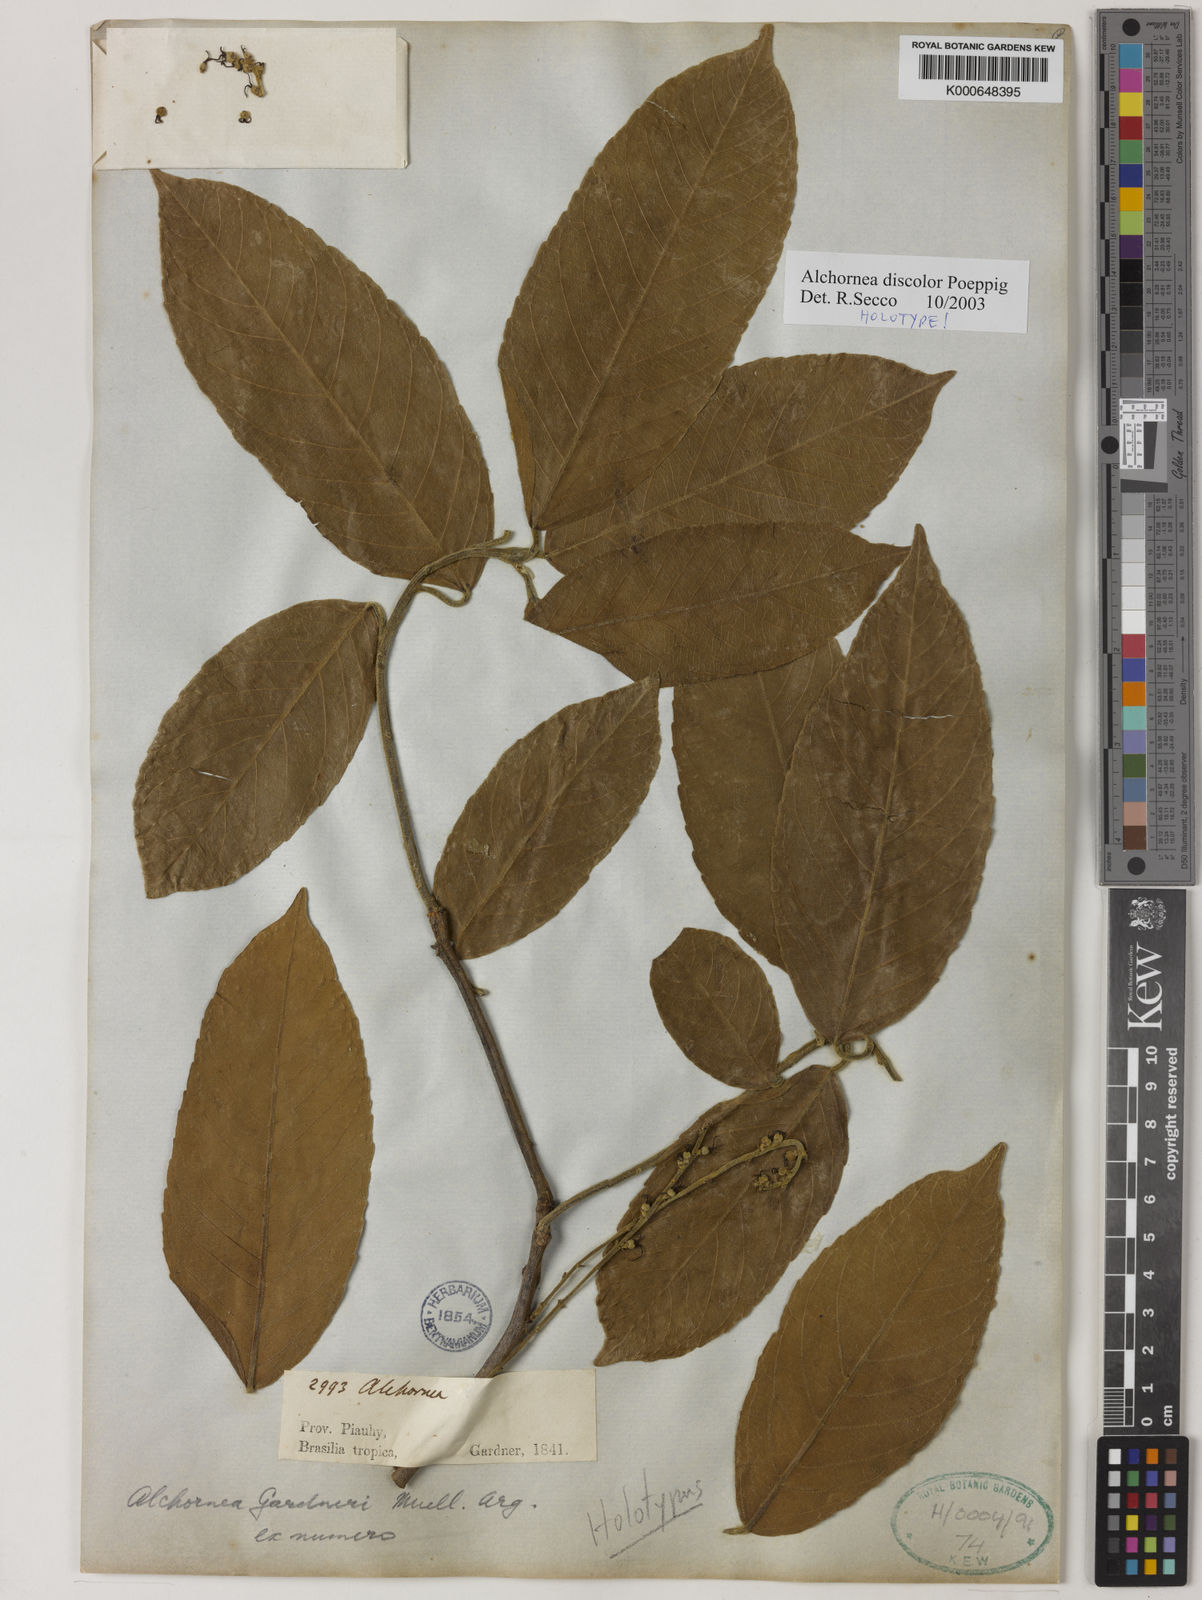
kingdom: Plantae
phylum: Tracheophyta
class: Magnoliopsida
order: Malpighiales
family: Euphorbiaceae
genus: Alchornea
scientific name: Alchornea discolor
